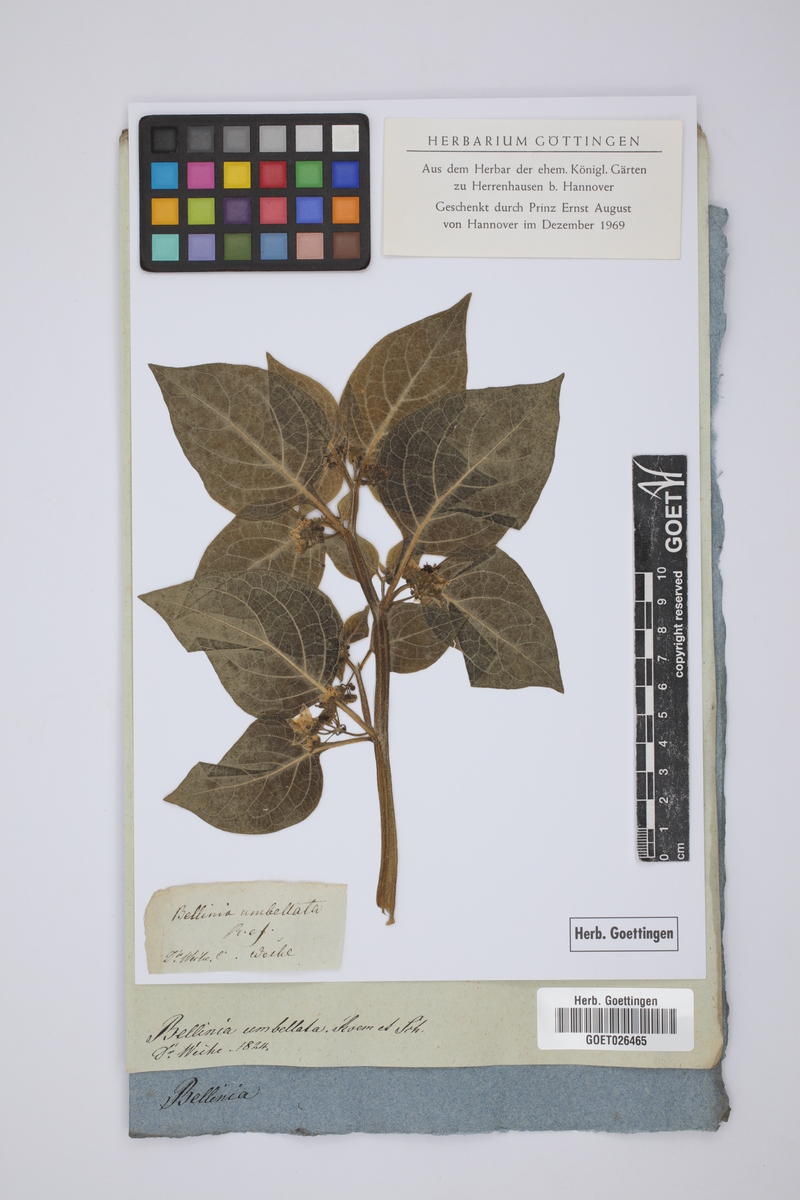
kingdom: Plantae
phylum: Tracheophyta
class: Magnoliopsida
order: Solanales
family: Solanaceae
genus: Jaltomata
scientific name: Jaltomata contorta
